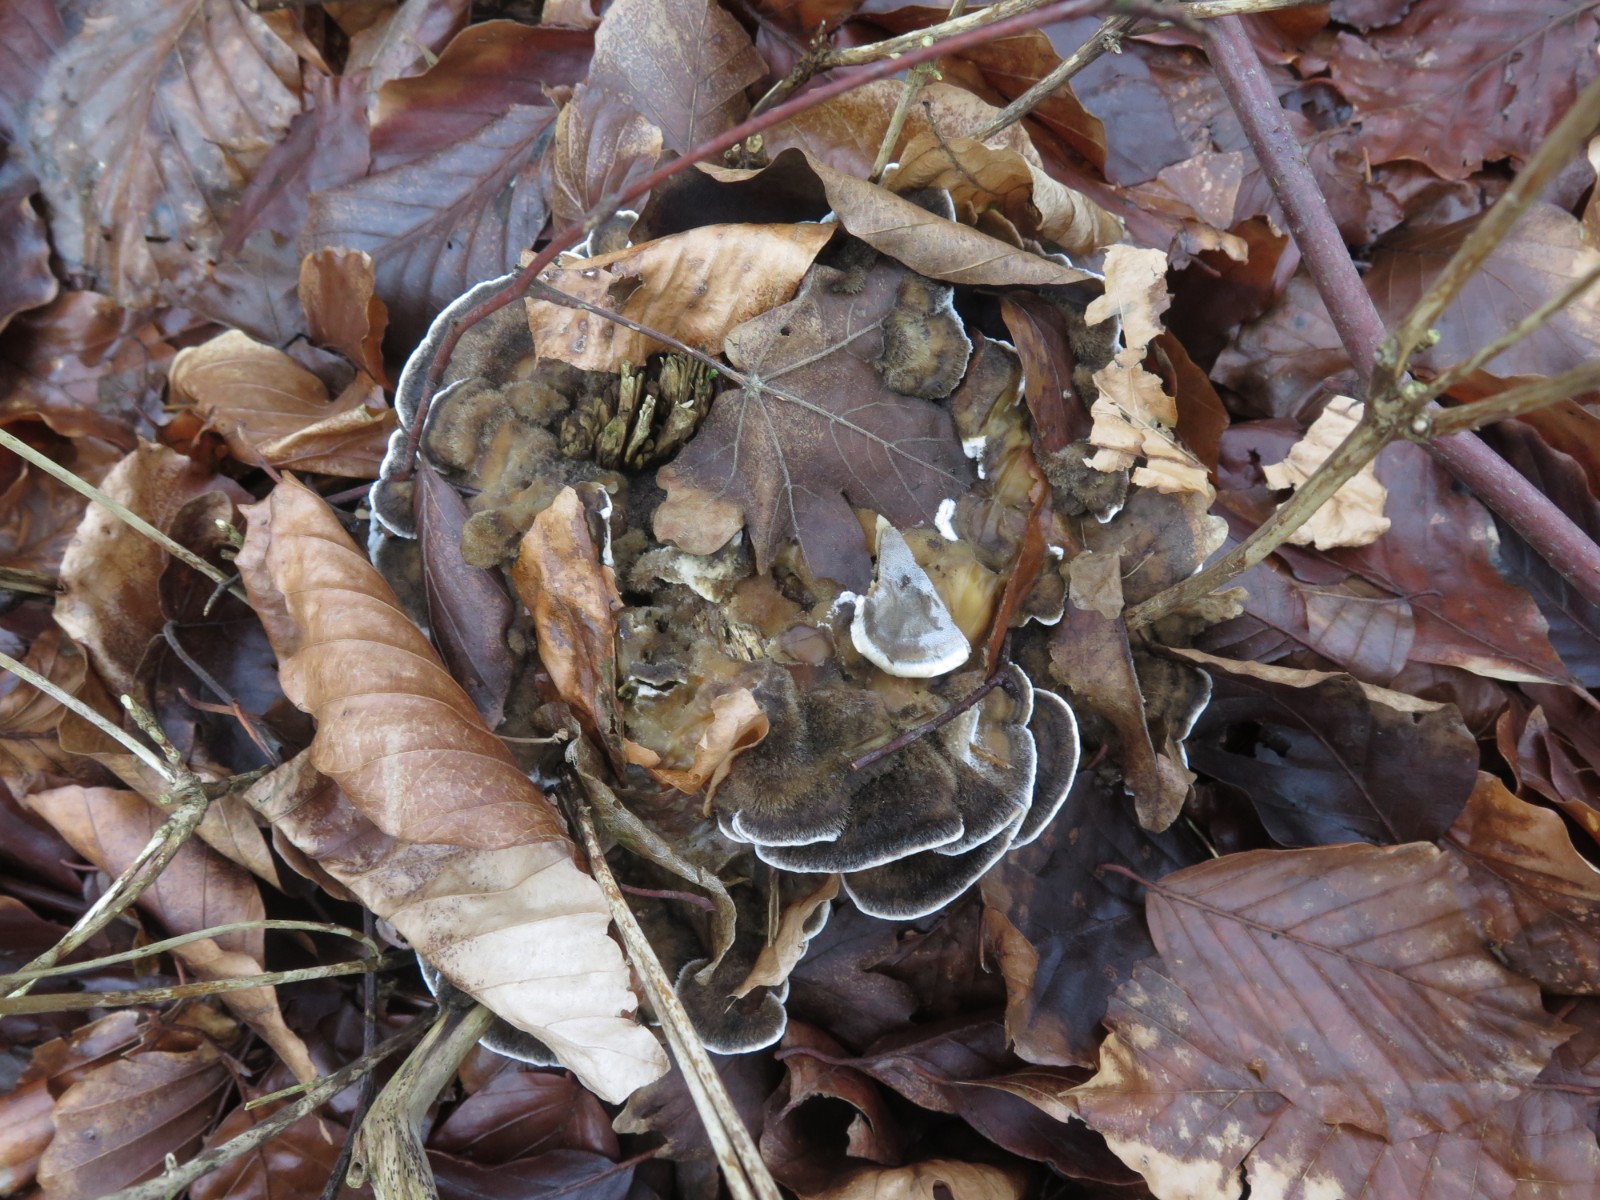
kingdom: Fungi
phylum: Basidiomycota
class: Agaricomycetes
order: Polyporales
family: Phanerochaetaceae
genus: Bjerkandera
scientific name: Bjerkandera adusta
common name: sveden sodporesvamp
